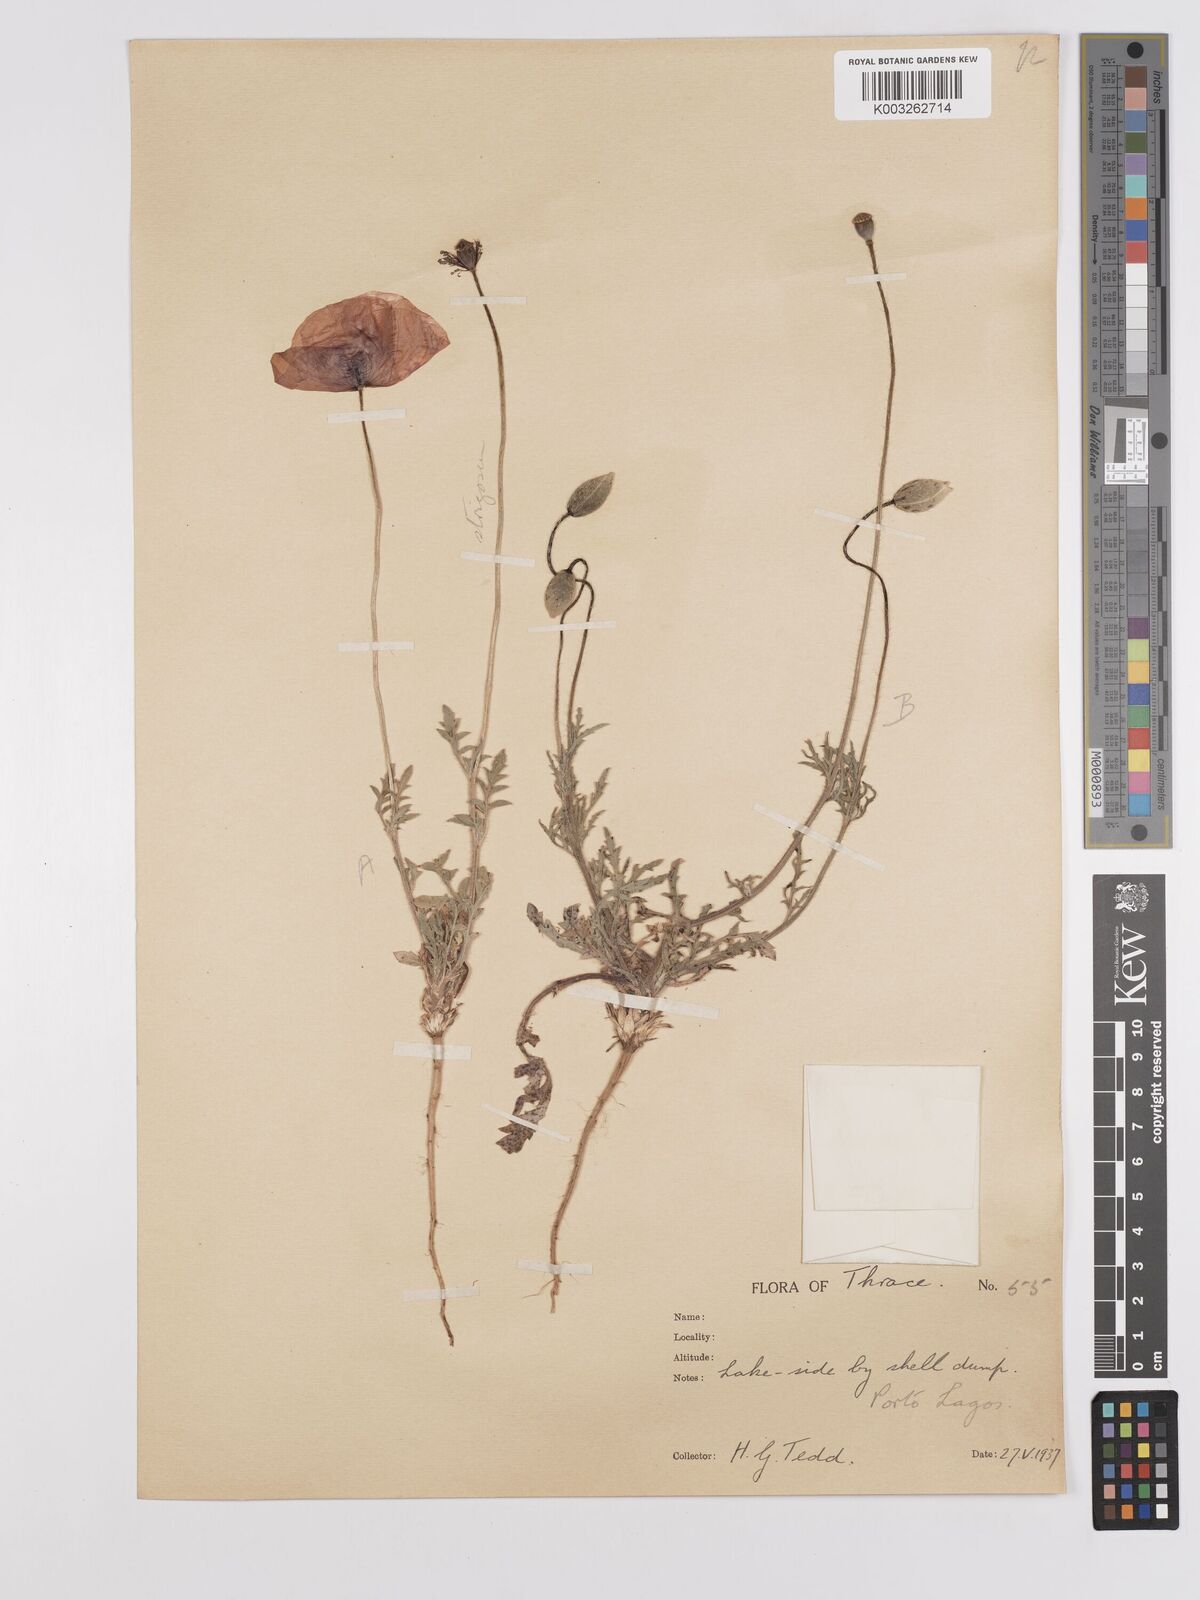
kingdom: Plantae
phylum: Tracheophyta
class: Magnoliopsida
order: Ranunculales
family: Papaveraceae
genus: Papaver
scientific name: Papaver
